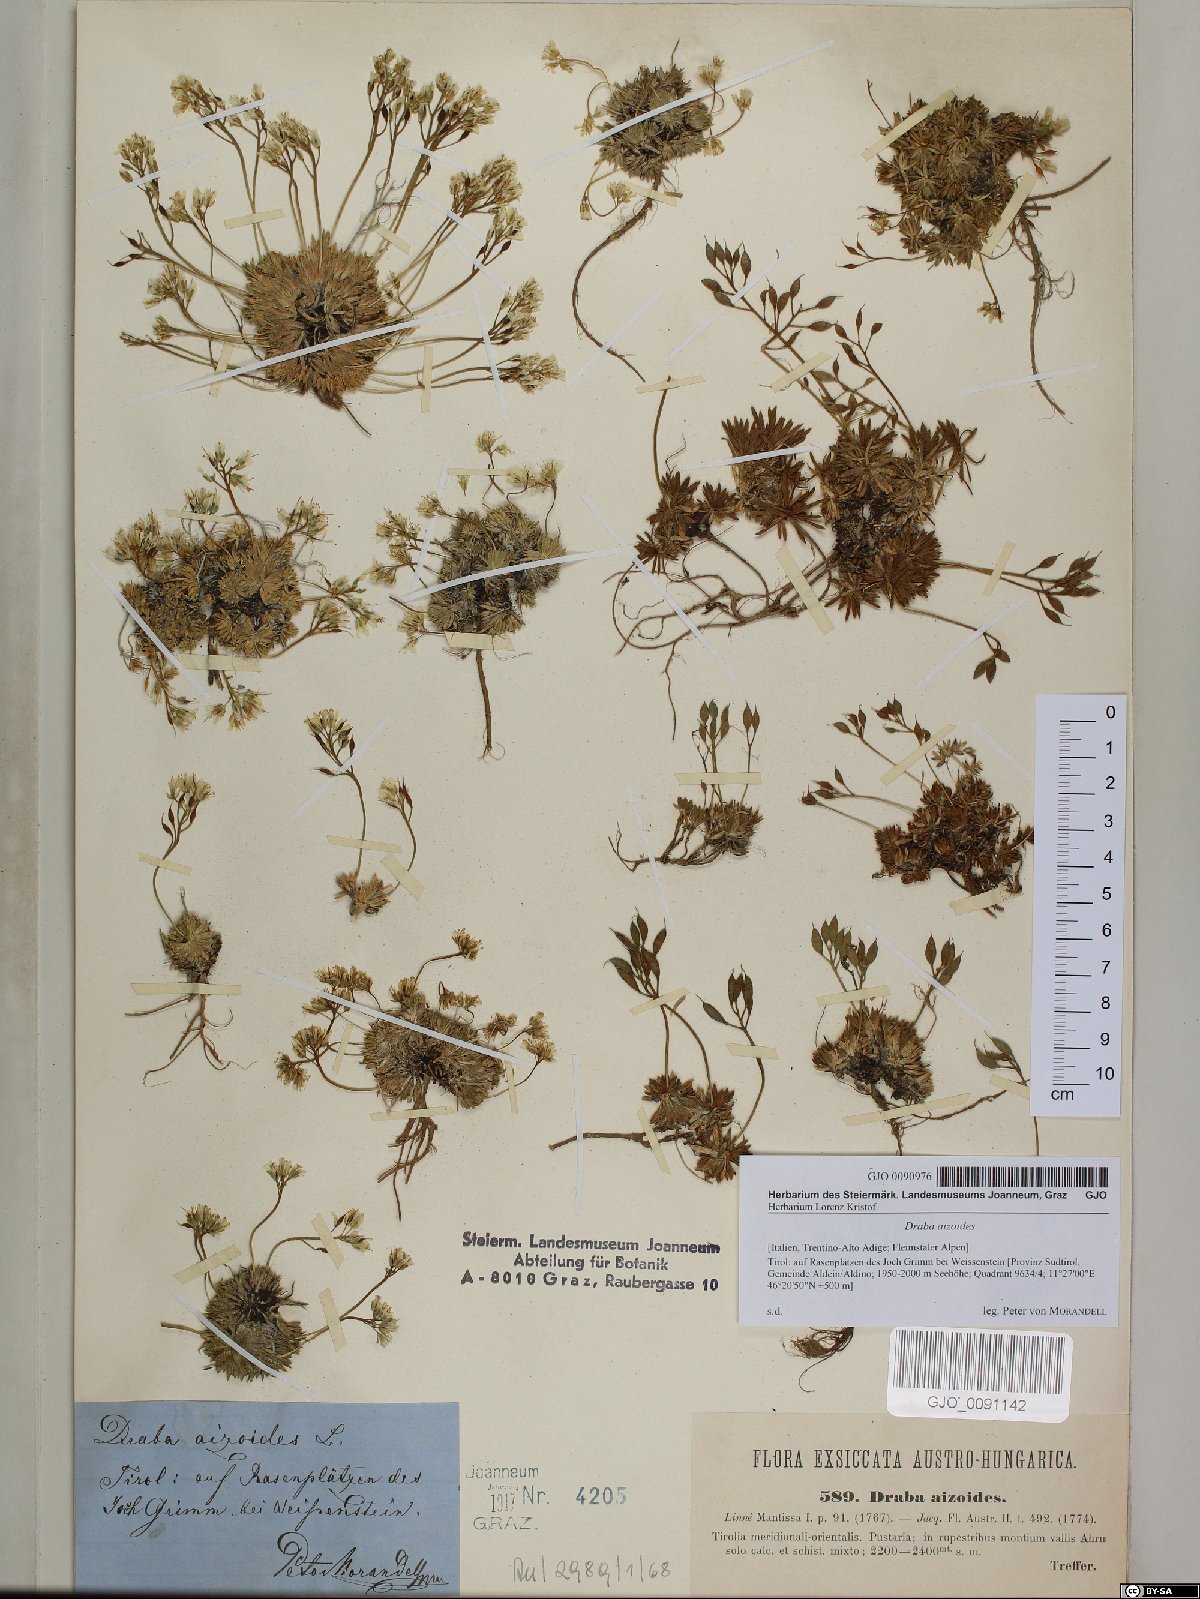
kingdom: Plantae
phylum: Tracheophyta
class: Magnoliopsida
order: Brassicales
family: Brassicaceae
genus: Draba
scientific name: Draba aizoides
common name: Yellow whitlowgrass
